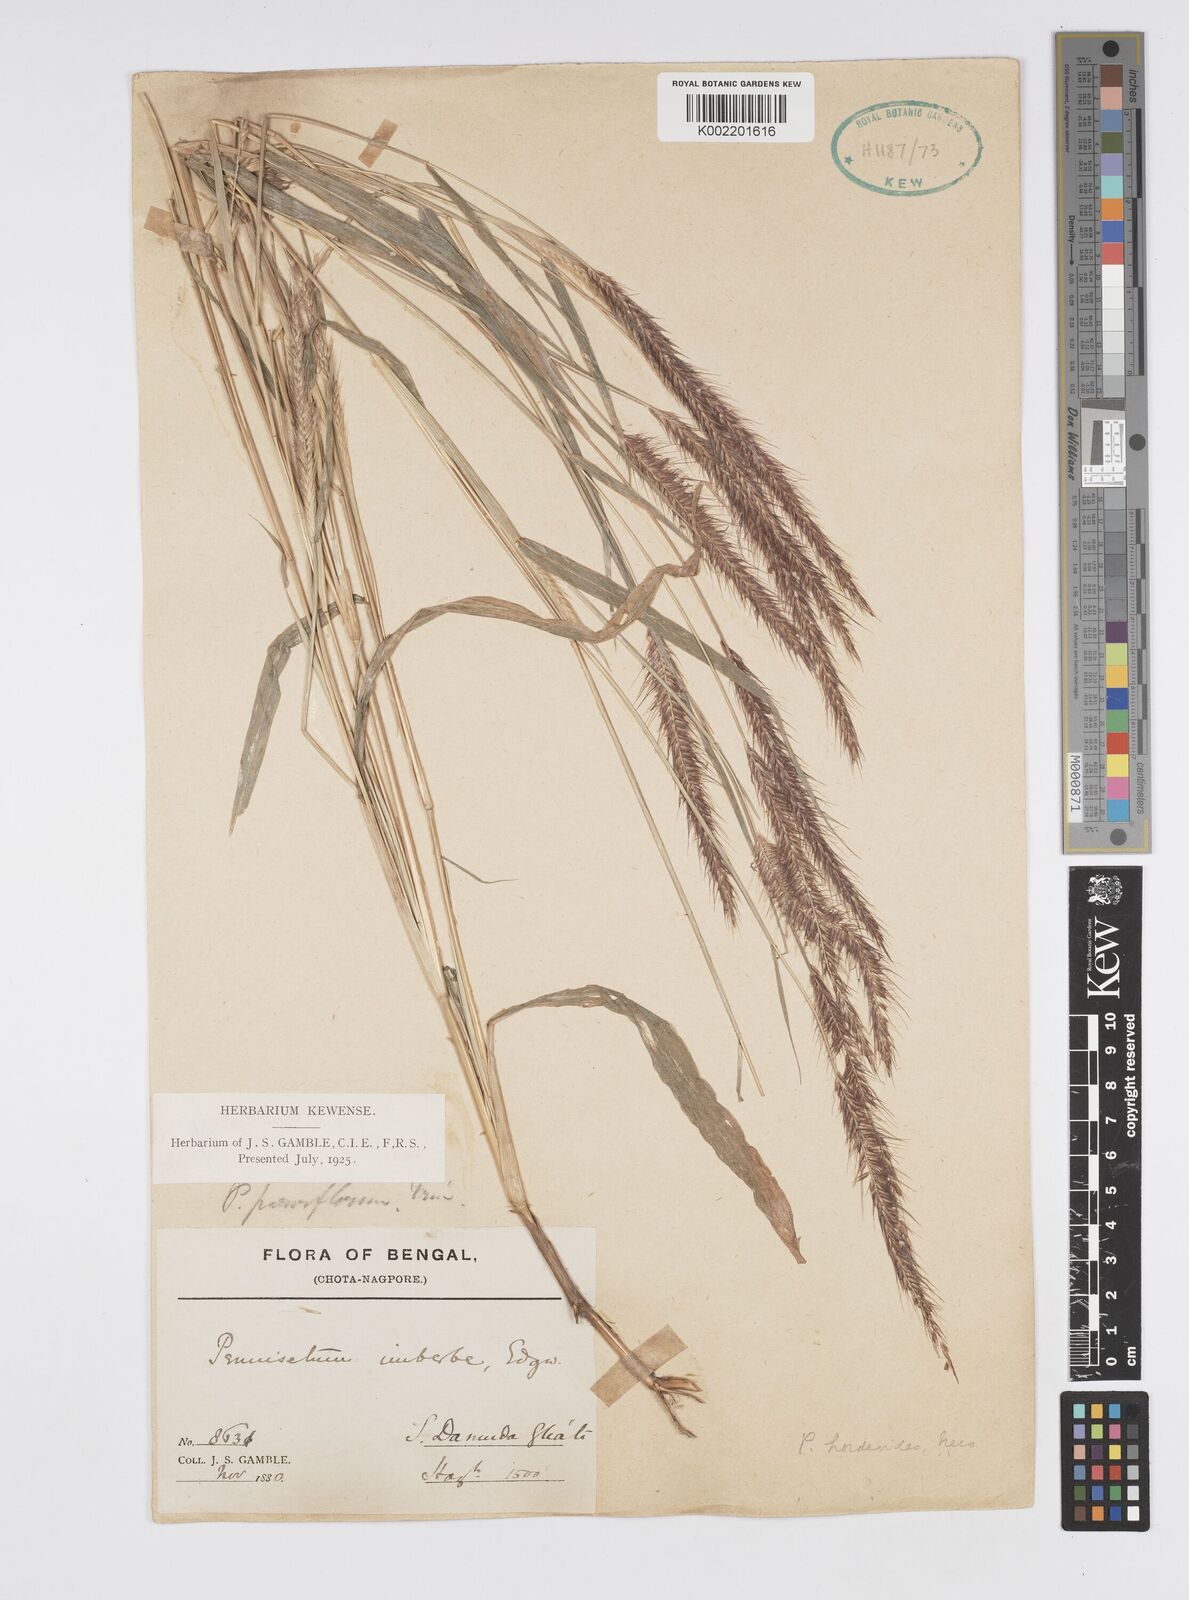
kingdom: Plantae
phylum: Tracheophyta
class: Liliopsida
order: Poales
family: Poaceae
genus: Cenchrus
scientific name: Cenchrus hordeoides
